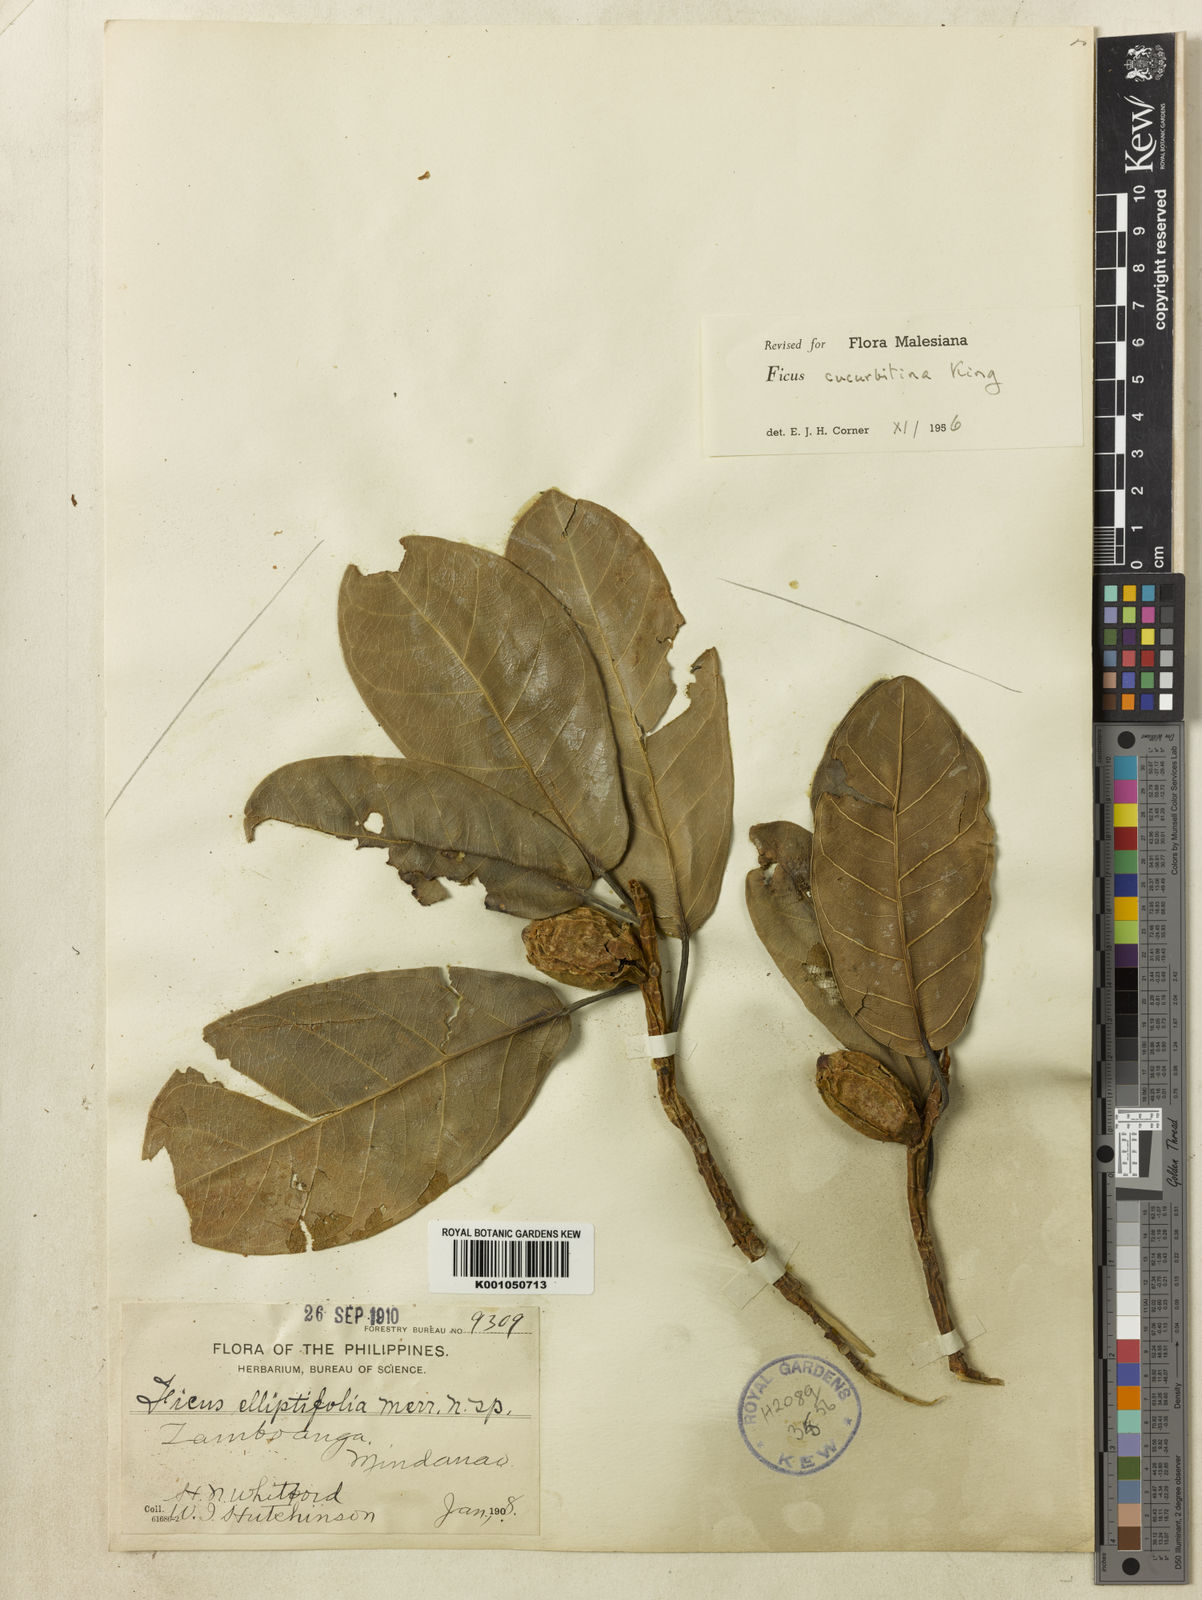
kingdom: Plantae
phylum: Tracheophyta
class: Magnoliopsida
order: Rosales
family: Moraceae
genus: Ficus
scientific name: Ficus cucurbitina
